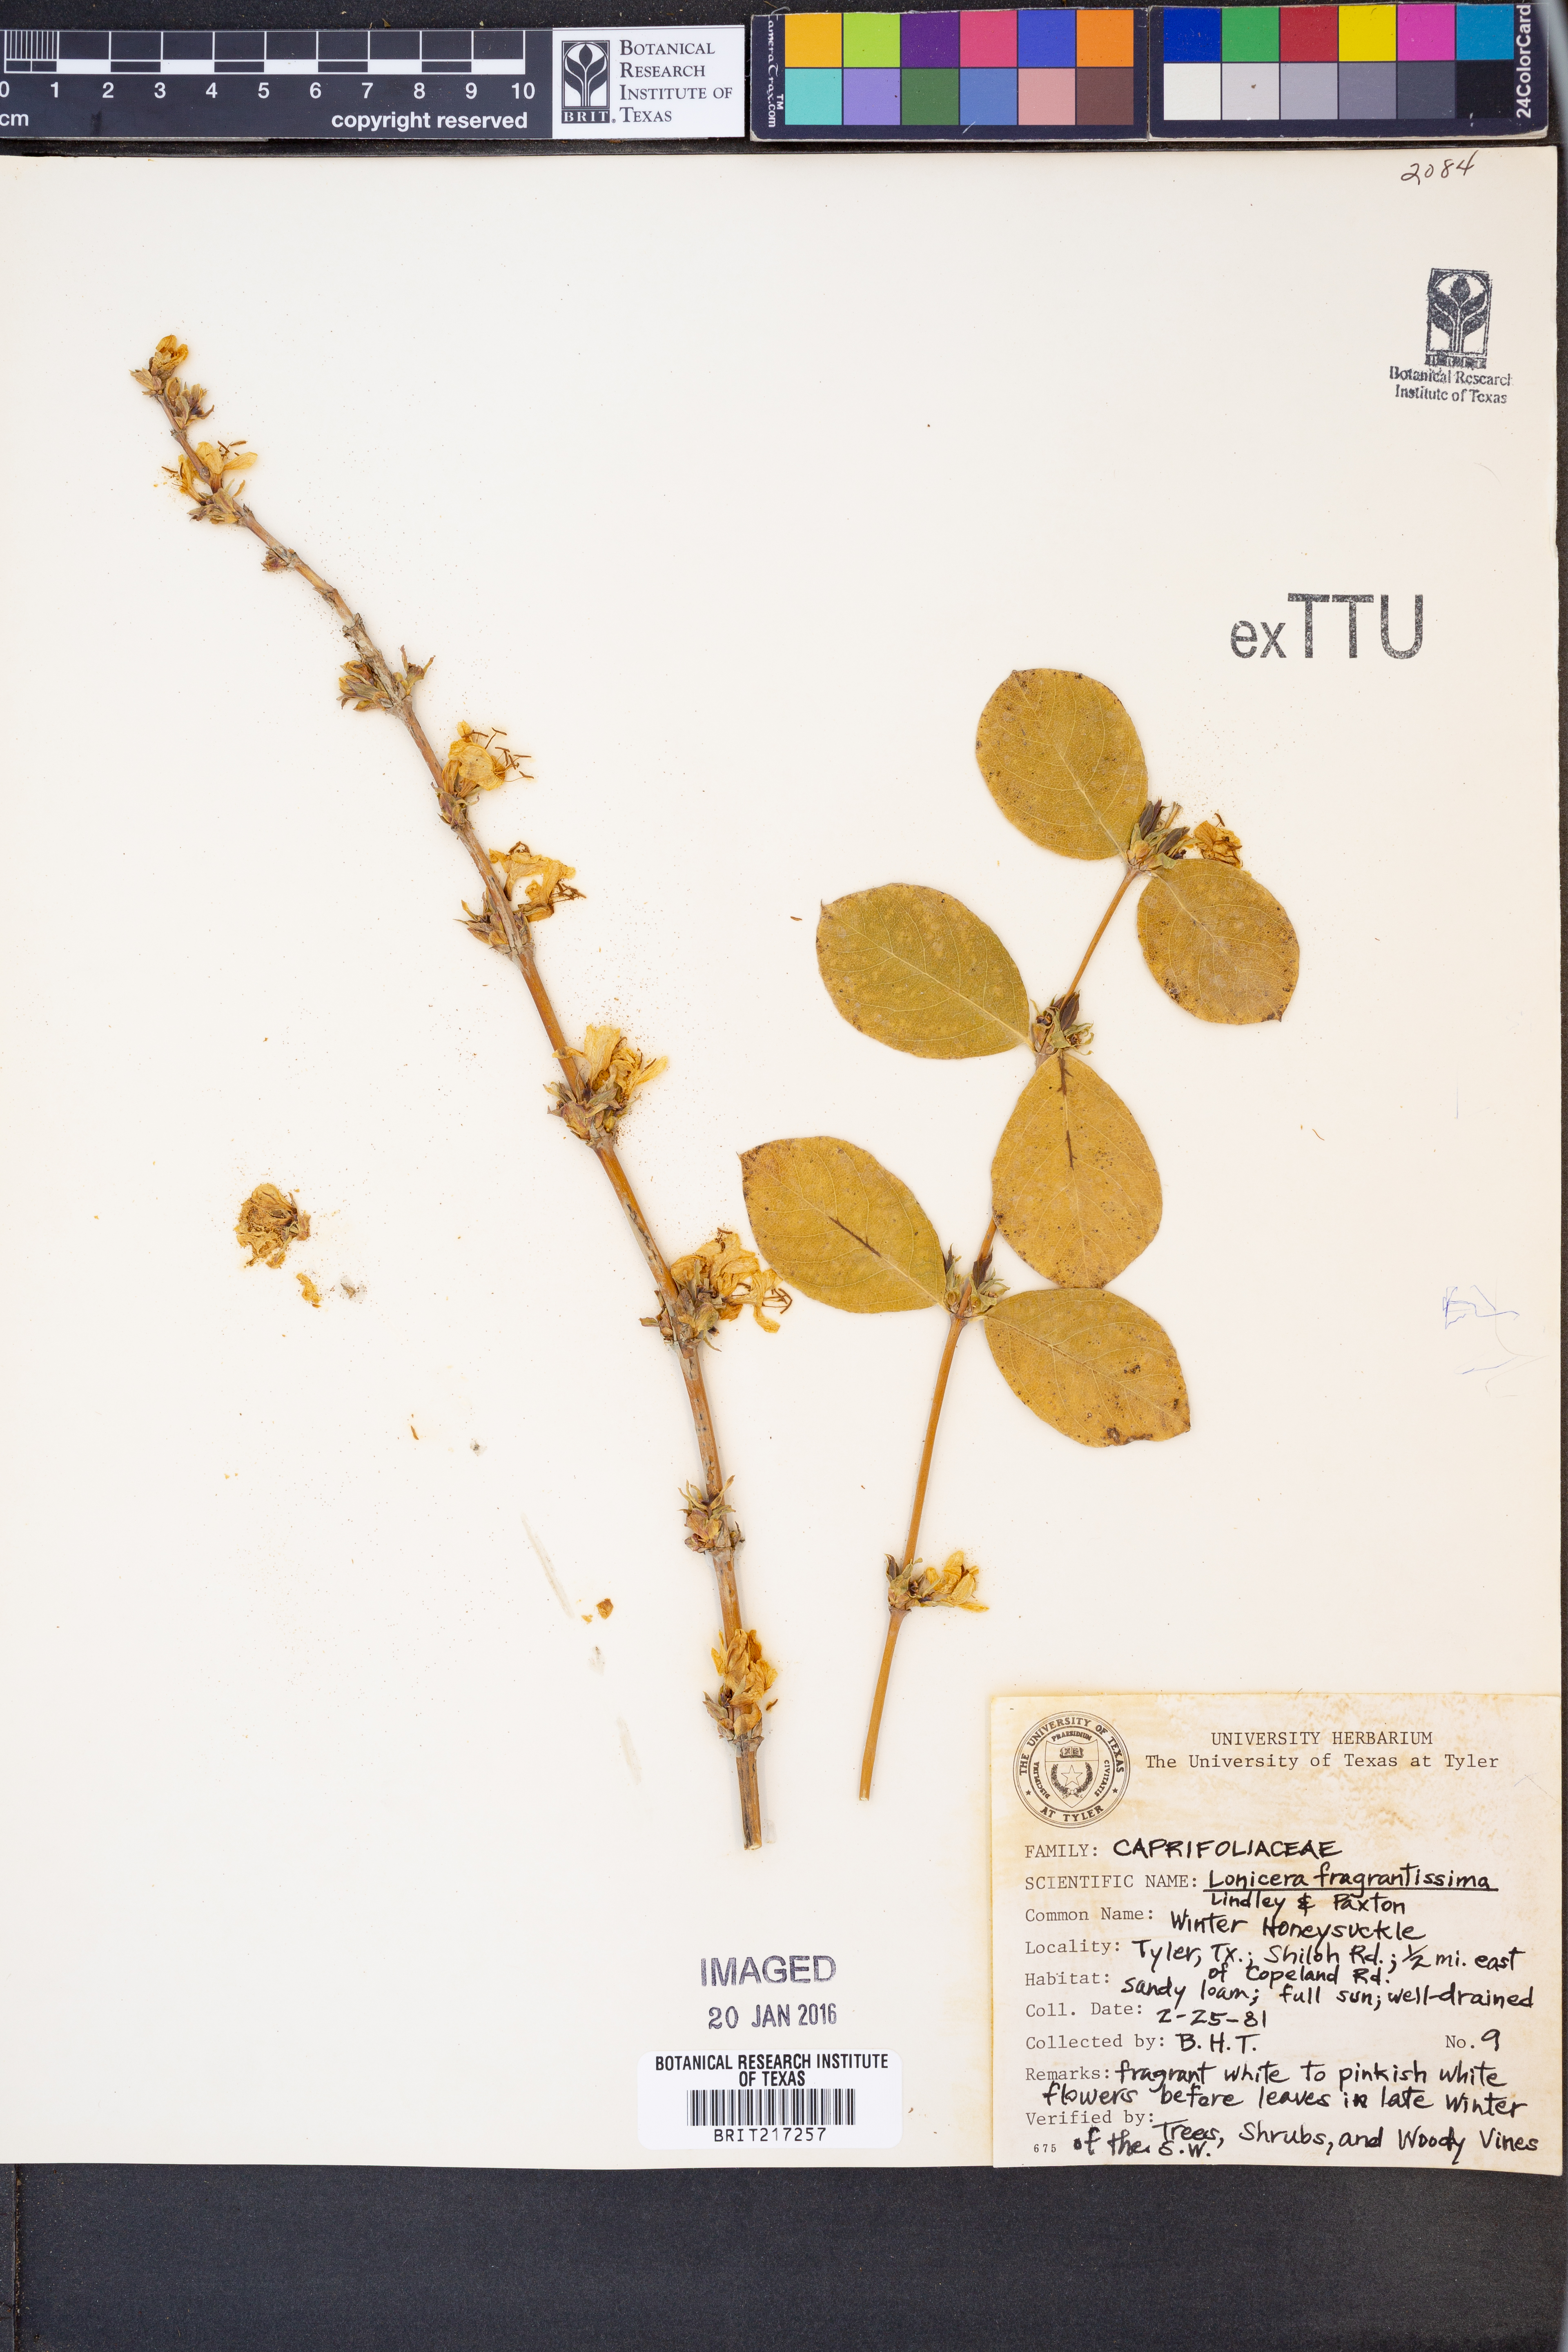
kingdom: Plantae
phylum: Tracheophyta
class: Magnoliopsida
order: Dipsacales
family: Caprifoliaceae
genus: Lonicera
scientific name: Lonicera fragrantissima
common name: Fragrant honeysuckle
